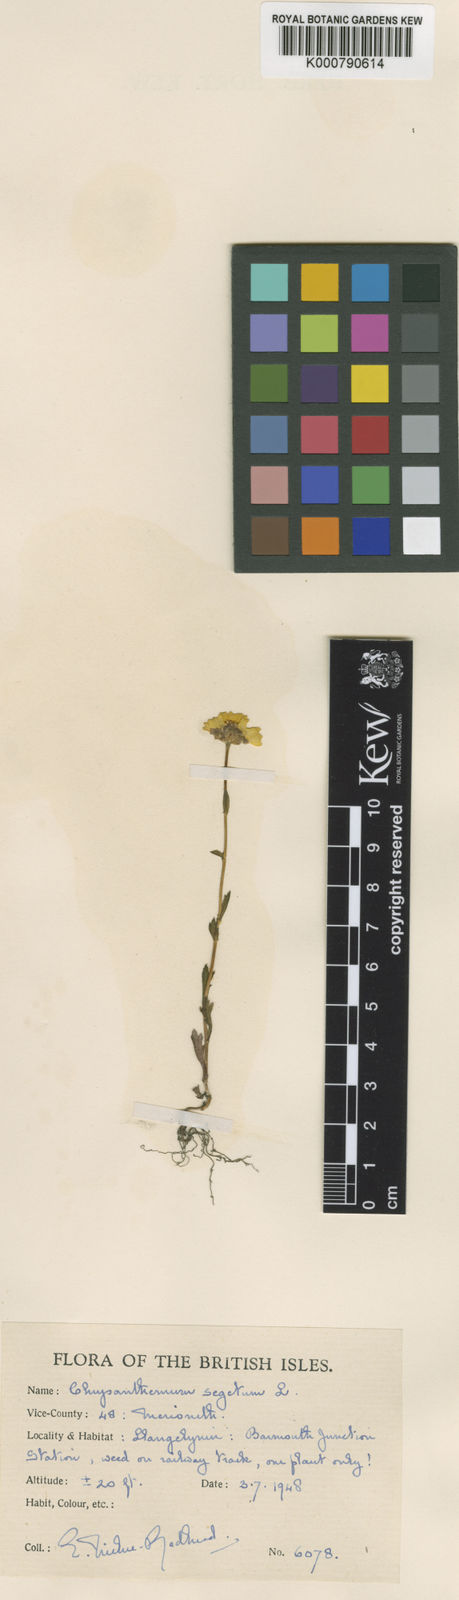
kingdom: Plantae
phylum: Tracheophyta
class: Magnoliopsida
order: Asterales
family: Asteraceae
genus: Glebionis
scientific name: Glebionis
